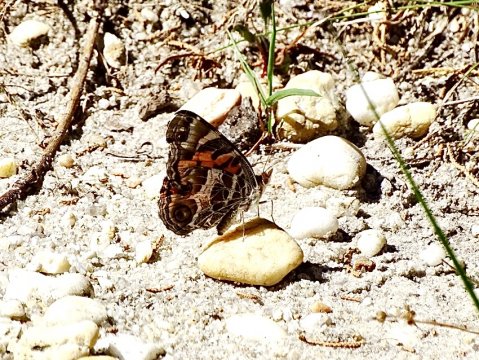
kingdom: Animalia
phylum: Arthropoda
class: Insecta
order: Lepidoptera
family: Nymphalidae
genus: Vanessa
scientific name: Vanessa virginiensis
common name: American Lady
